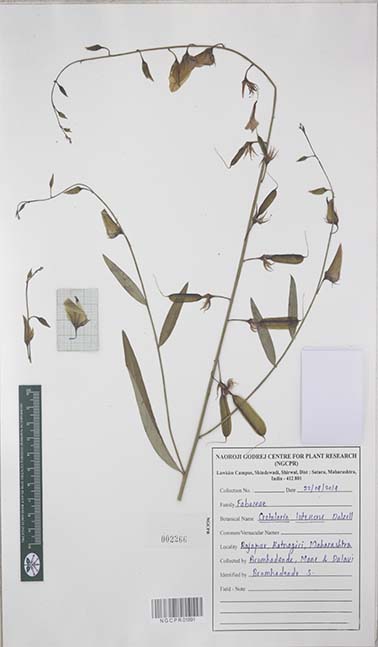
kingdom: Plantae
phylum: Tracheophyta
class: Magnoliopsida
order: Fabales
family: Fabaceae
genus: Crotalaria
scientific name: Crotalaria lutescens
